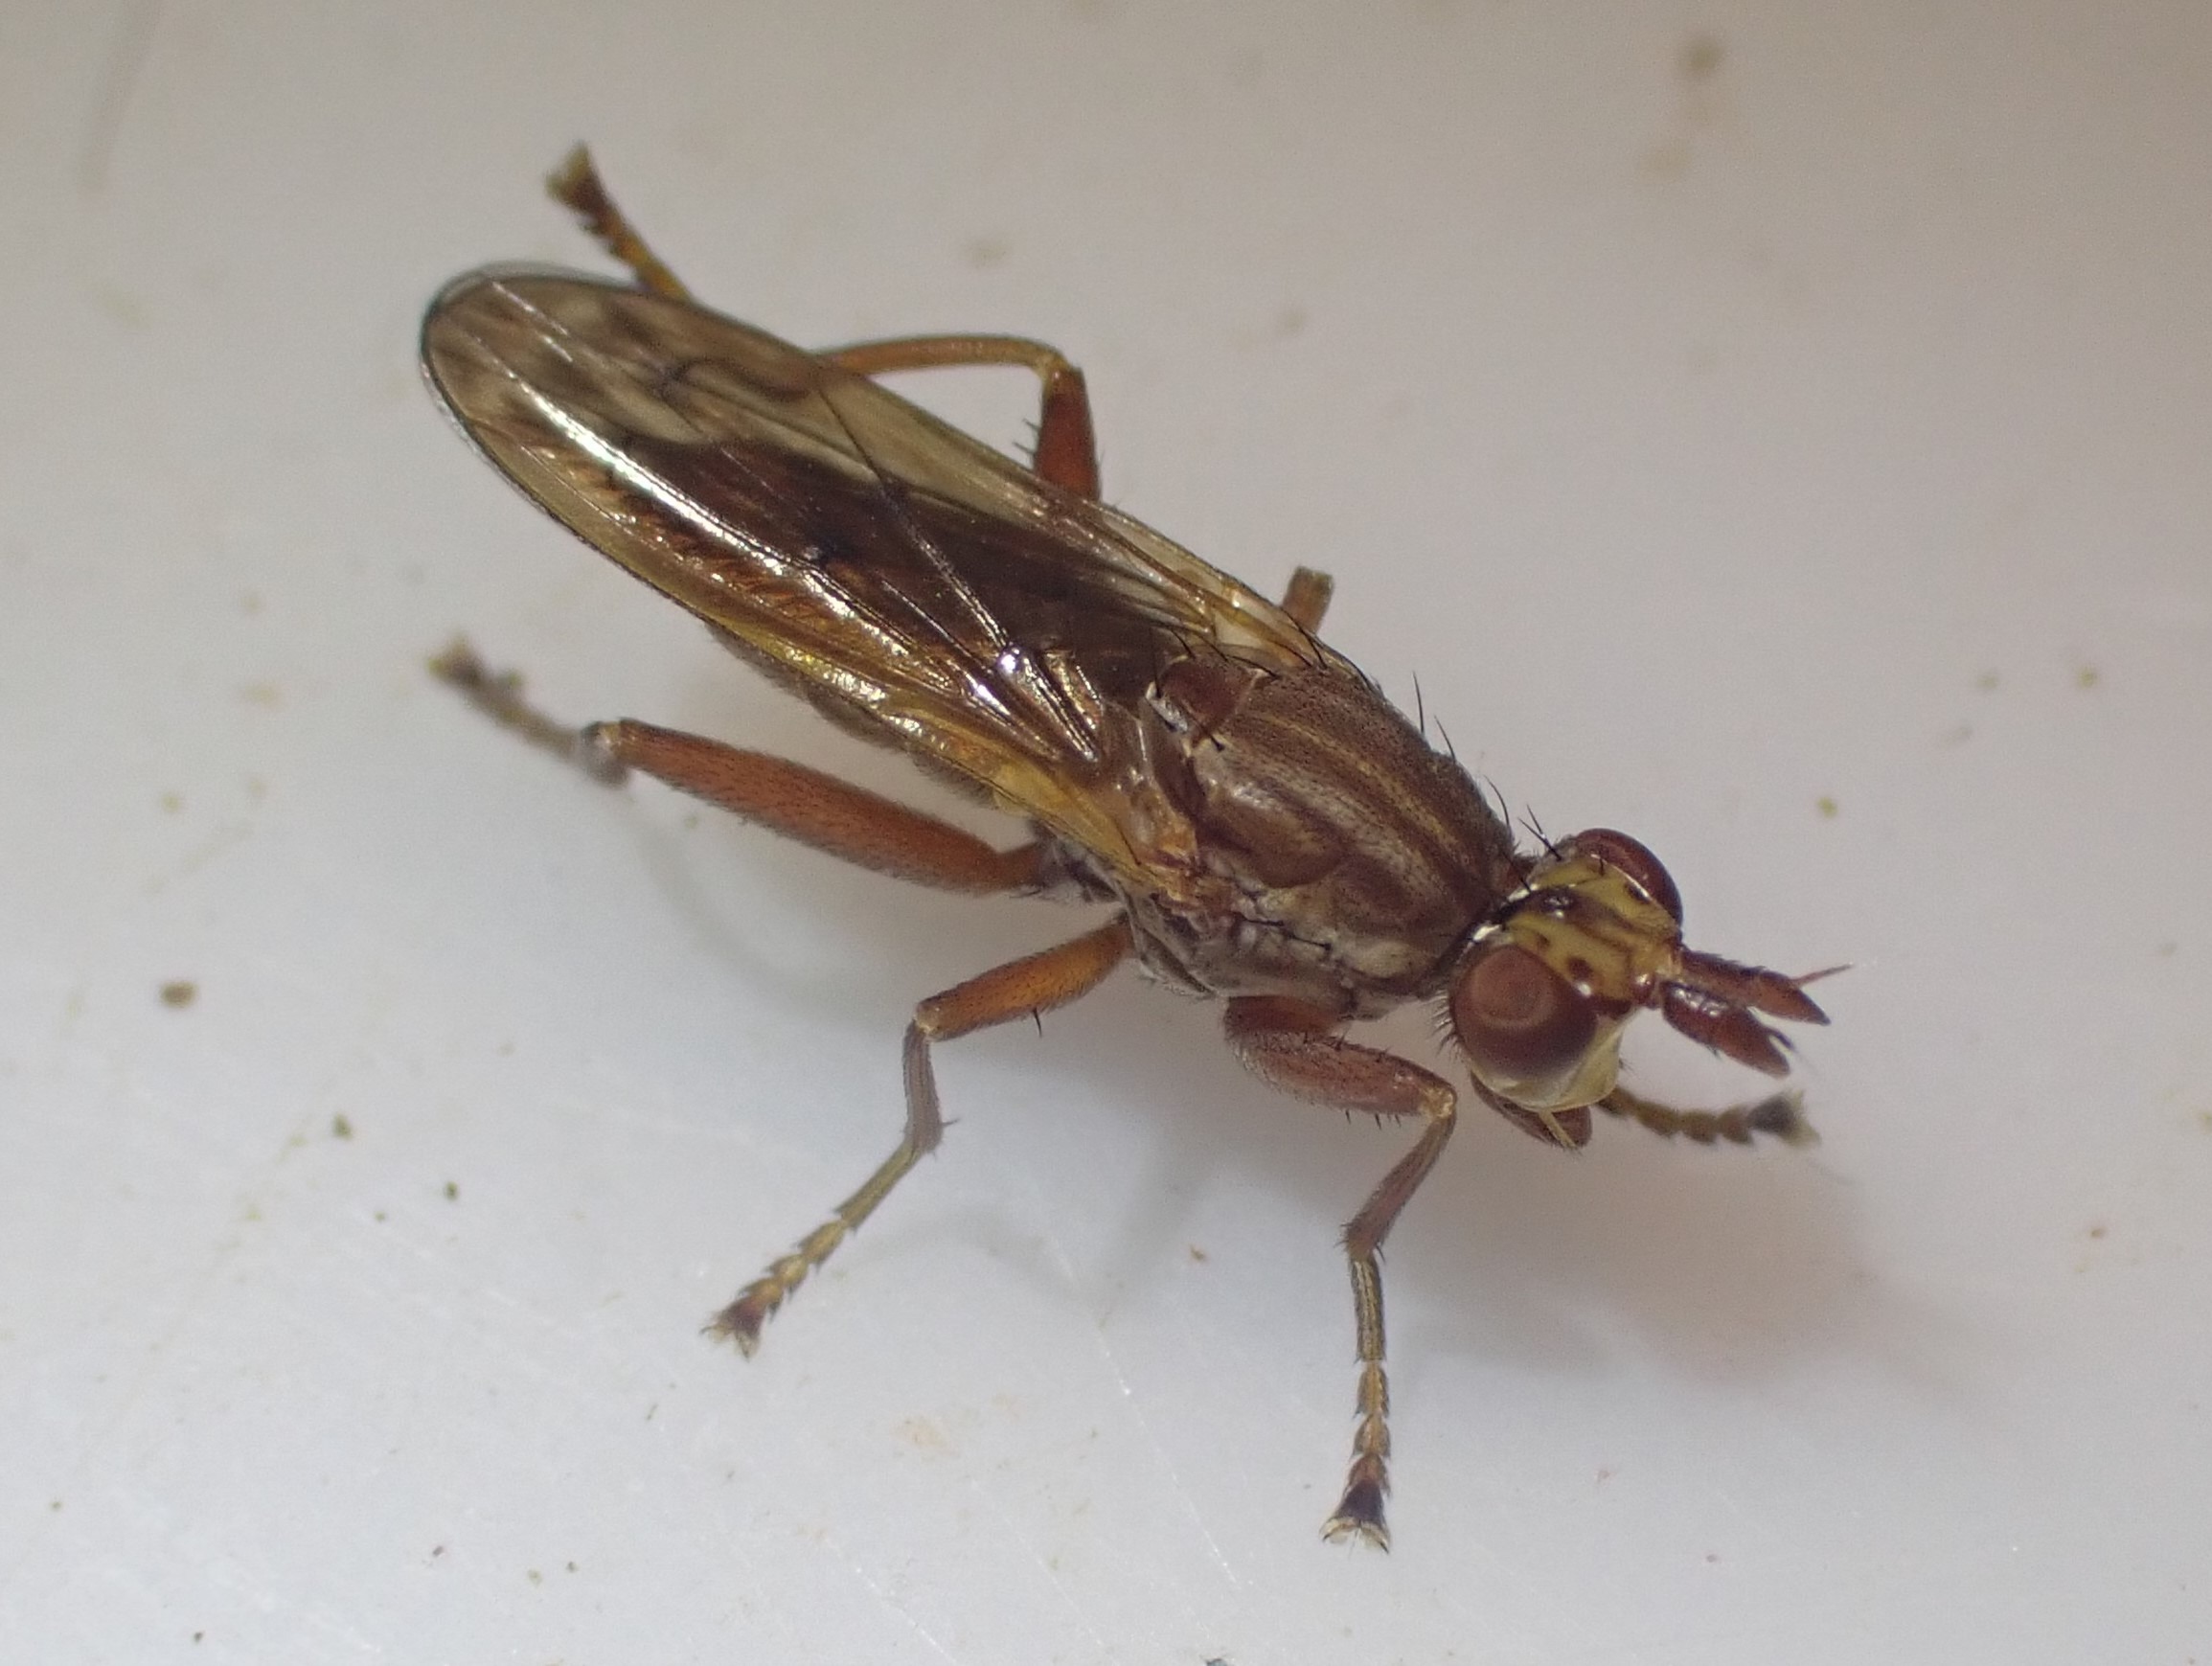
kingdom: Animalia
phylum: Arthropoda
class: Insecta
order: Diptera
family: Sciomyzidae
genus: Elgiva
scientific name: Elgiva solicita
